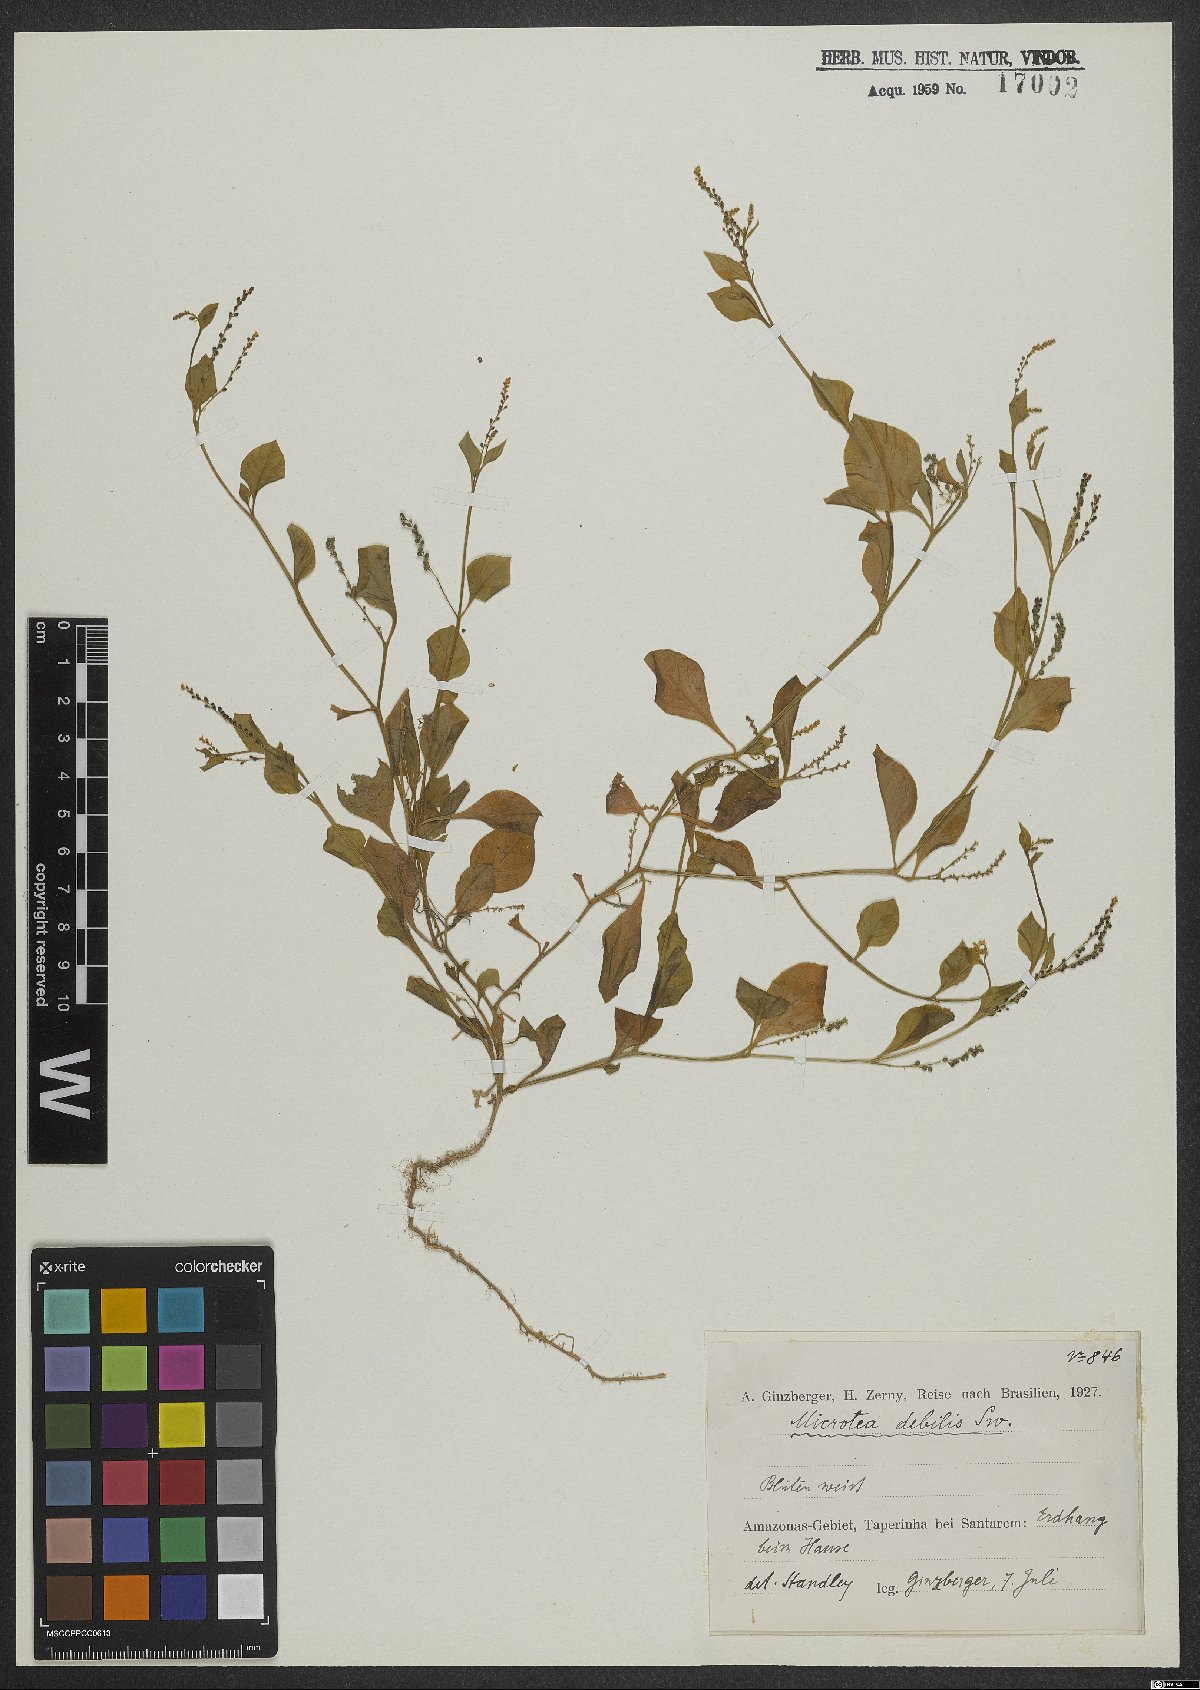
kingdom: Plantae
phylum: Tracheophyta
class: Magnoliopsida
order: Caryophyllales
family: Microteaceae
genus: Microtea
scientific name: Microtea debilis
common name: Weak jumby peppe
